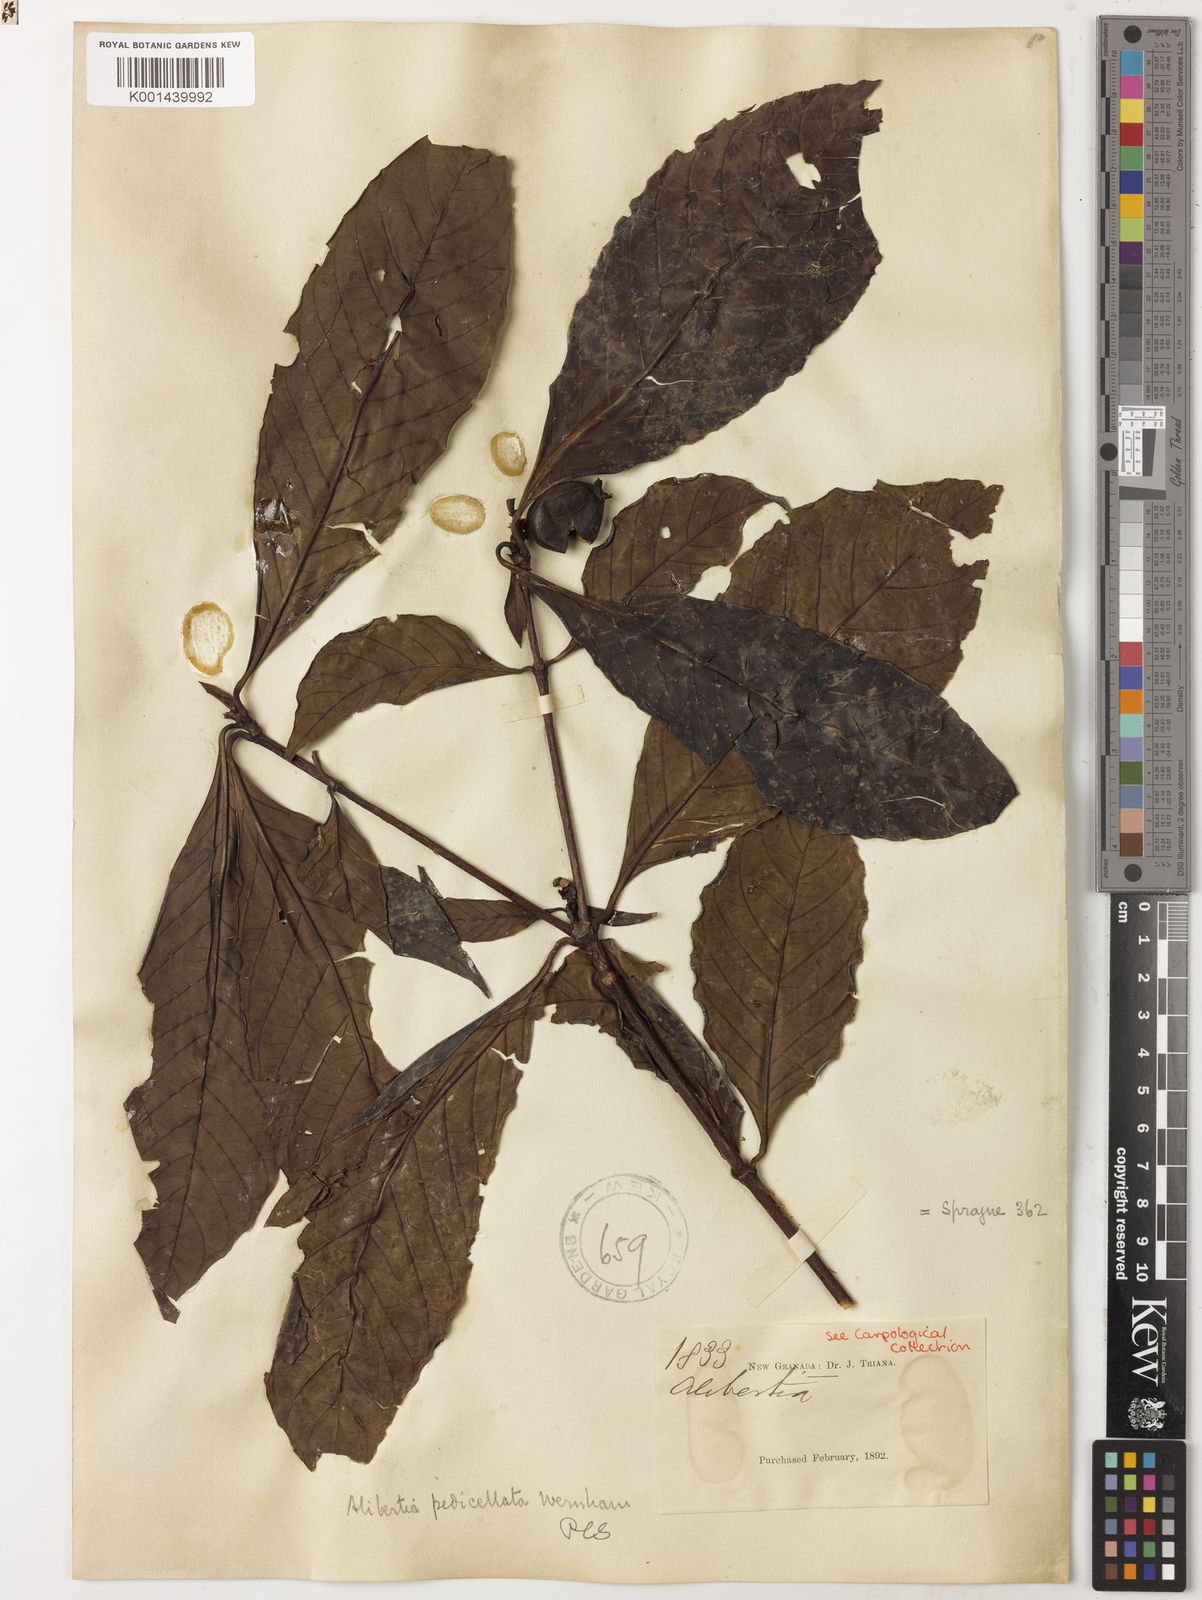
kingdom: Plantae
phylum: Tracheophyta
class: Magnoliopsida
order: Gentianales
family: Rubiaceae
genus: Sphinctanthus
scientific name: Sphinctanthus polycarpus
